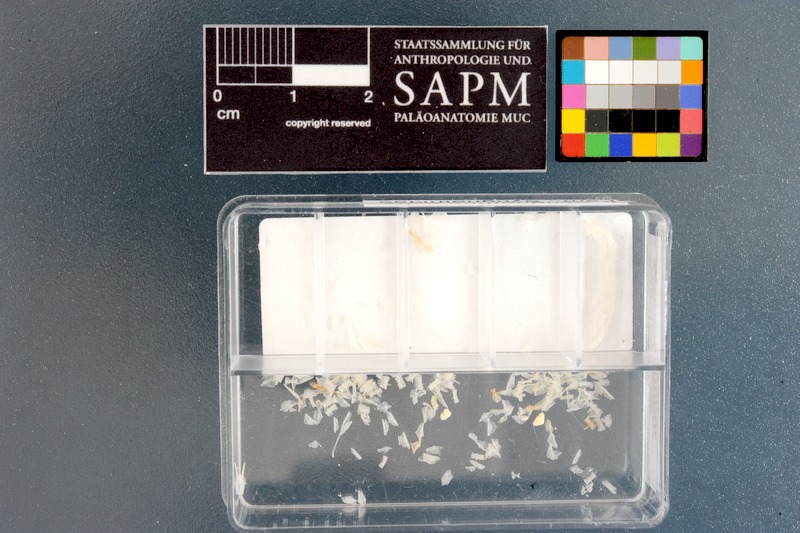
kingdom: Animalia
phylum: Chordata
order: Syngnathiformes
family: Syngnathidae
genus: Syngnathus
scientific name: Syngnathus acus
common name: Greater pipefish
